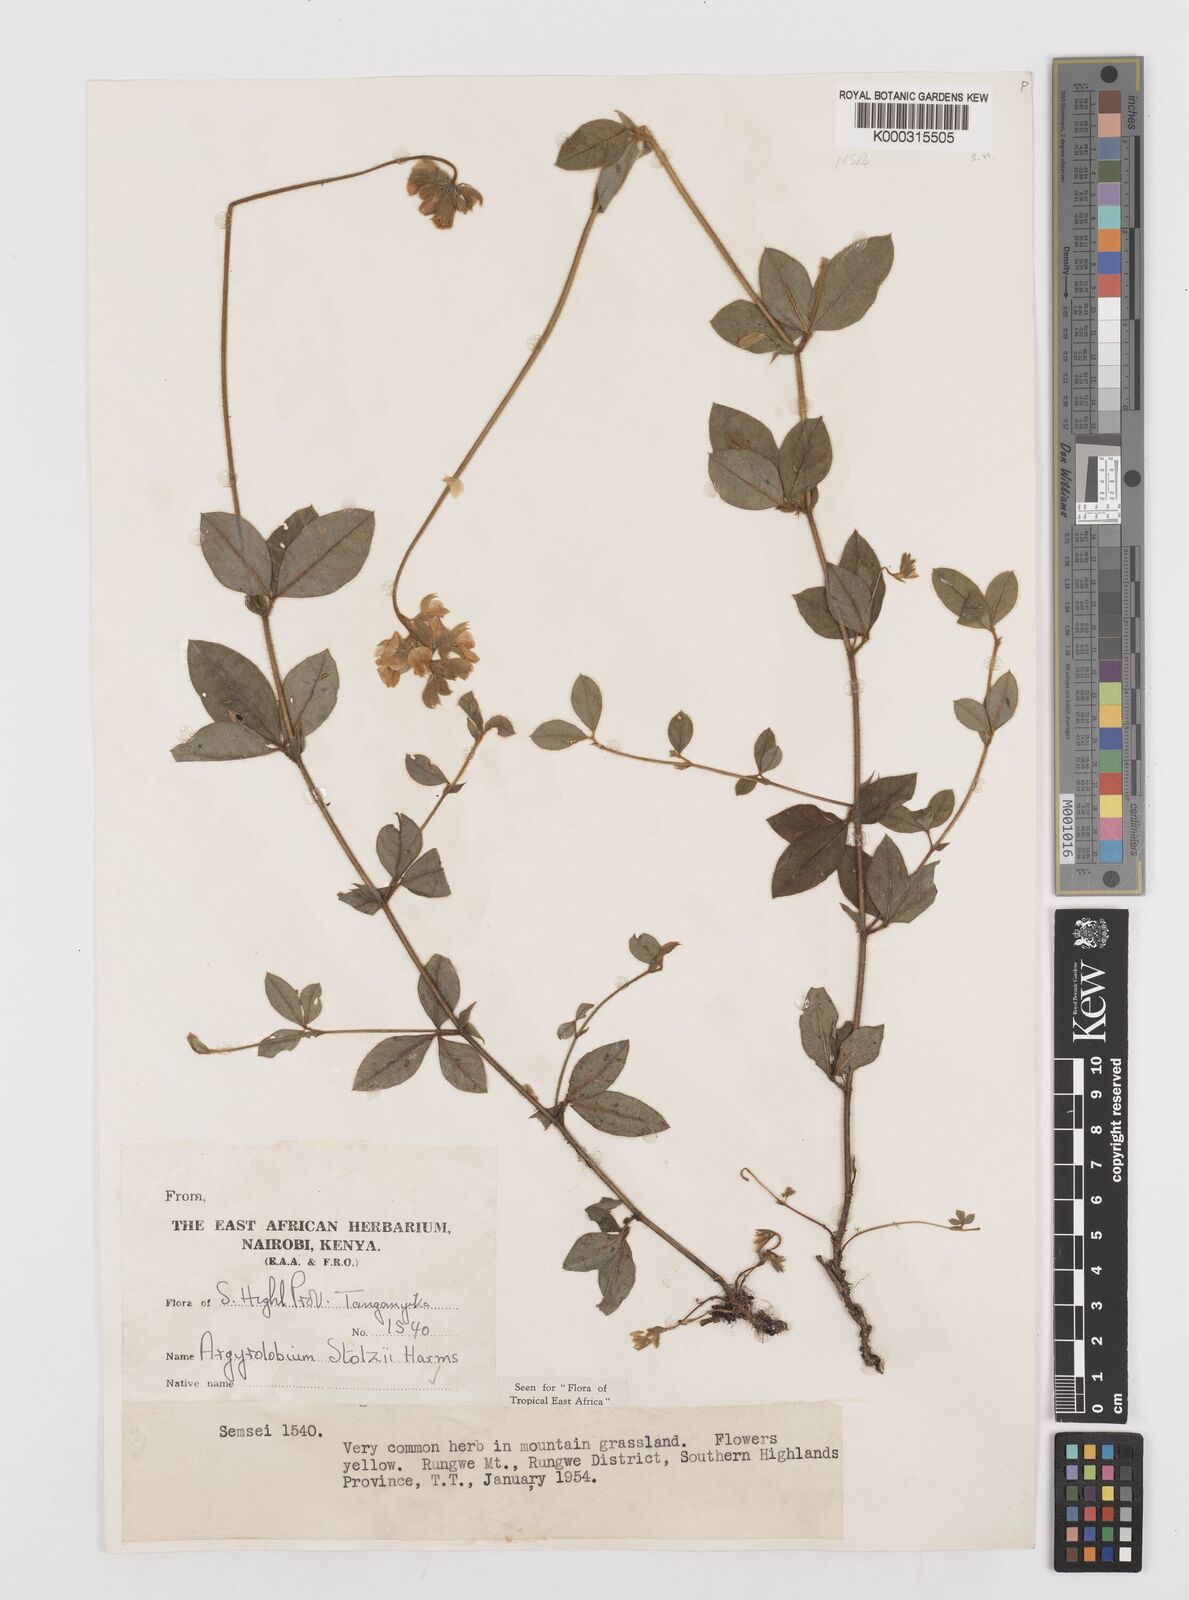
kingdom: Plantae
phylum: Tracheophyta
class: Magnoliopsida
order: Fabales
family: Fabaceae
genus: Argyrolobium
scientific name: Argyrolobium stolzii
